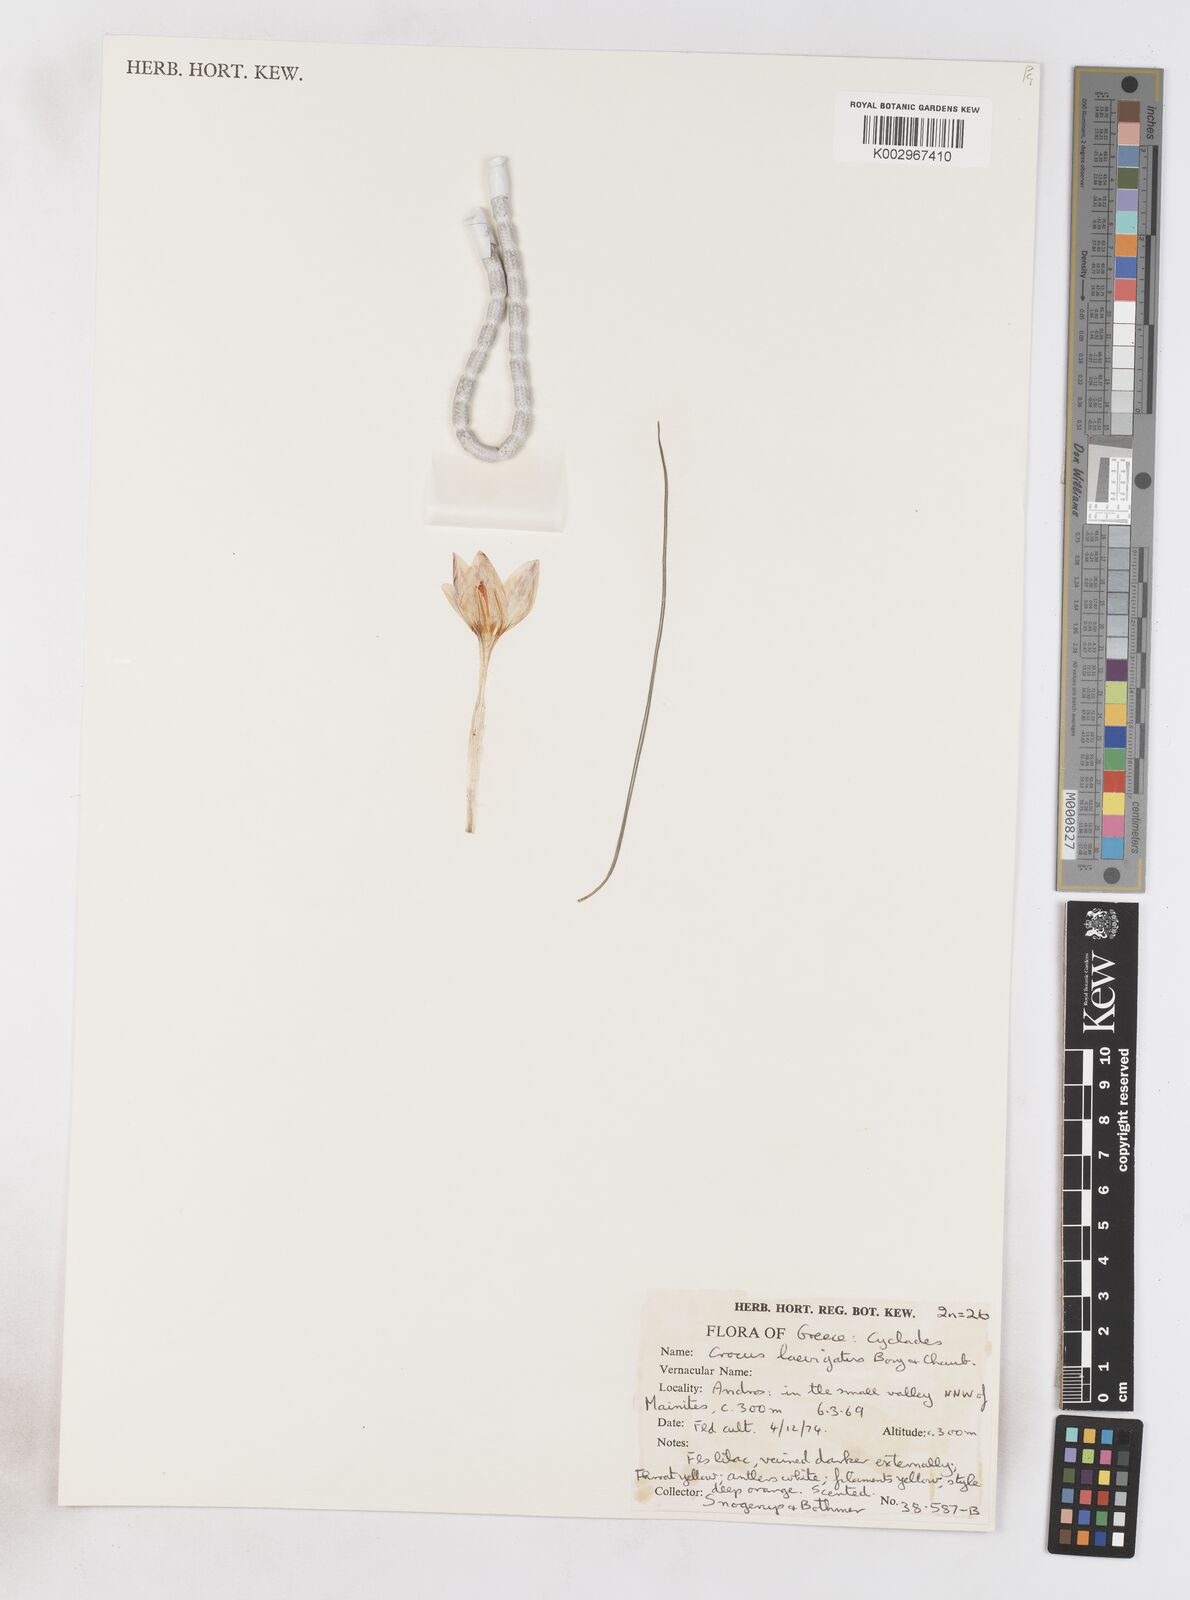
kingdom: Plantae
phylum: Tracheophyta
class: Liliopsida
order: Asparagales
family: Iridaceae
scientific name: Iridaceae
